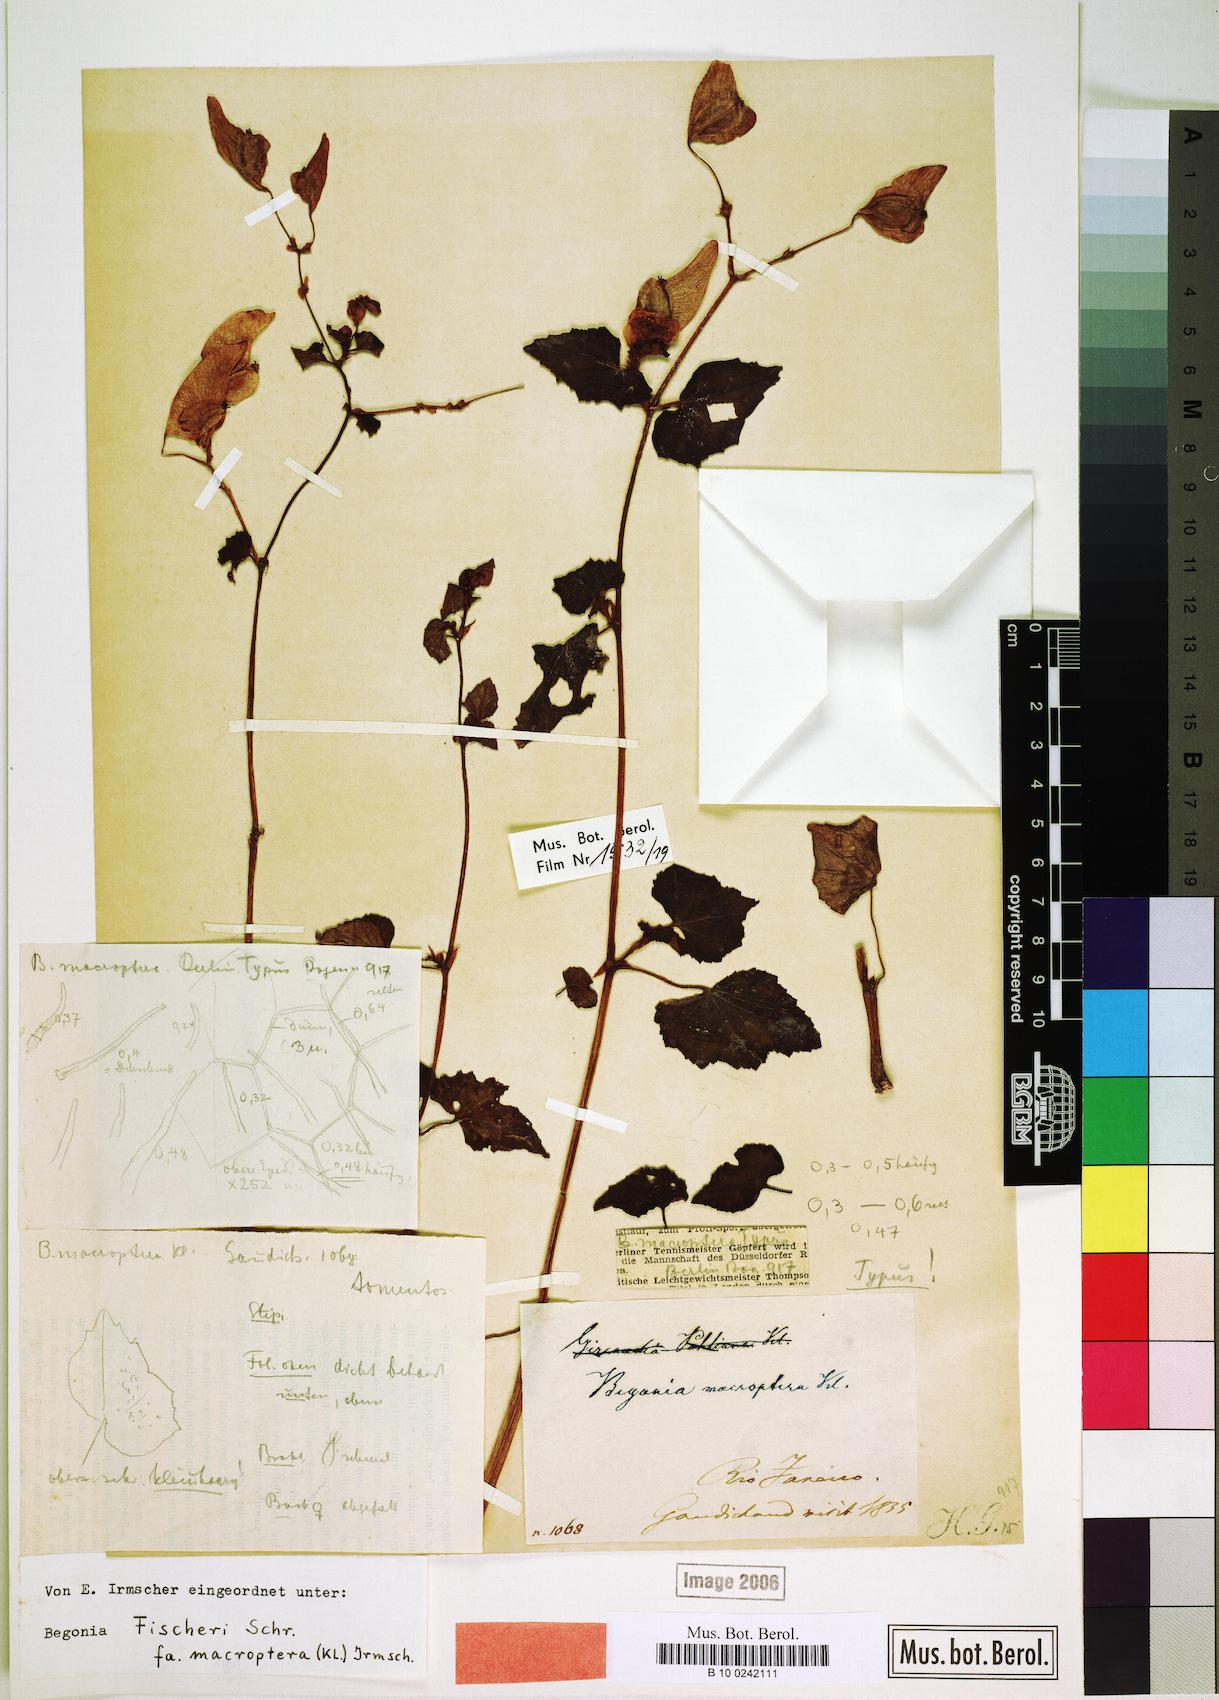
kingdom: Plantae
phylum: Tracheophyta
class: Magnoliopsida
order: Cucurbitales
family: Begoniaceae
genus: Begonia
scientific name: Begonia fischeri
